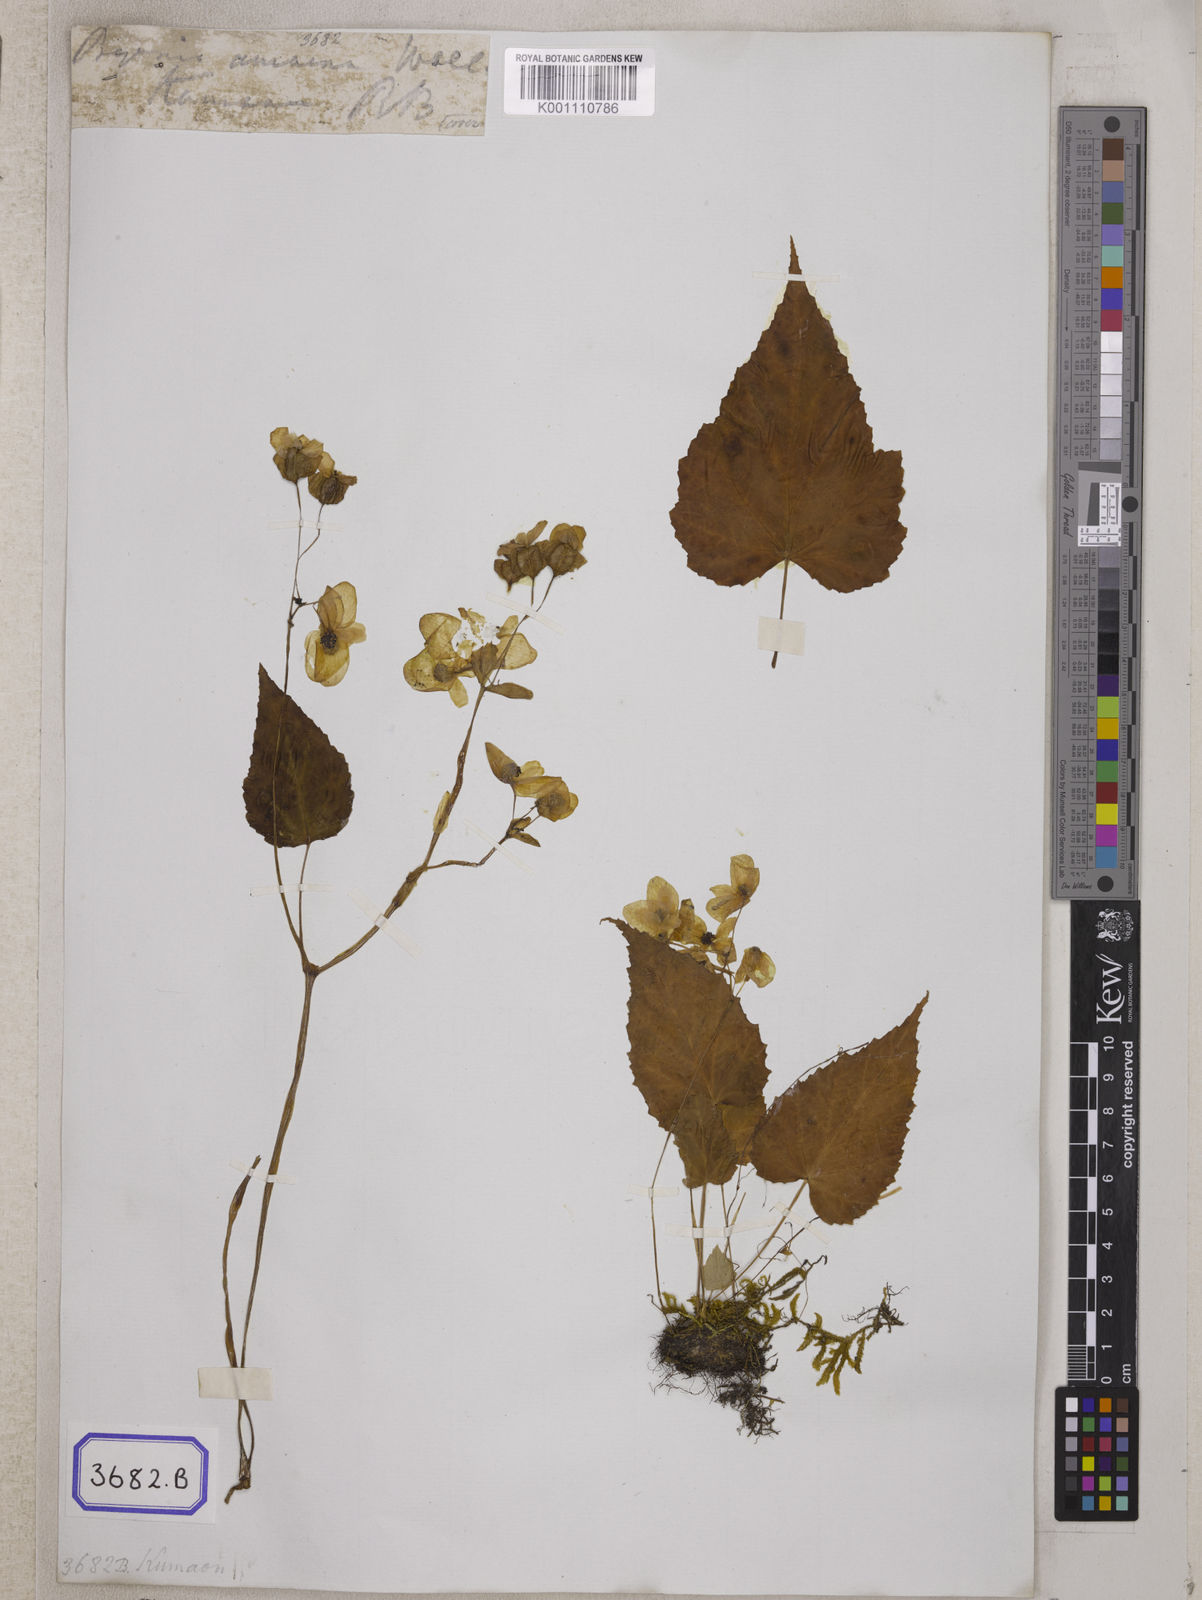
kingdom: Plantae
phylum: Tracheophyta
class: Magnoliopsida
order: Cucurbitales
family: Begoniaceae
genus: Begonia
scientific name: Begonia
